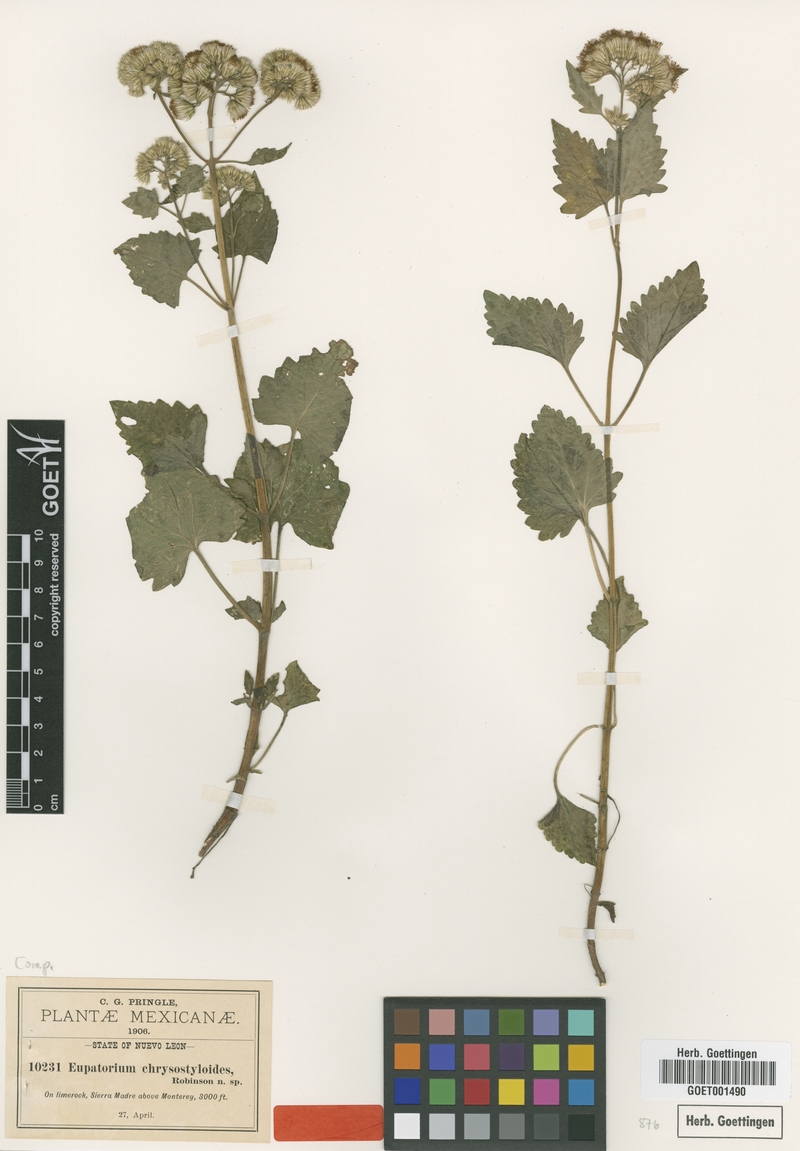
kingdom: Plantae
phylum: Tracheophyta
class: Magnoliopsida
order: Asterales
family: Asteraceae
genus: Flyriella
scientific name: Flyriella leonensis
